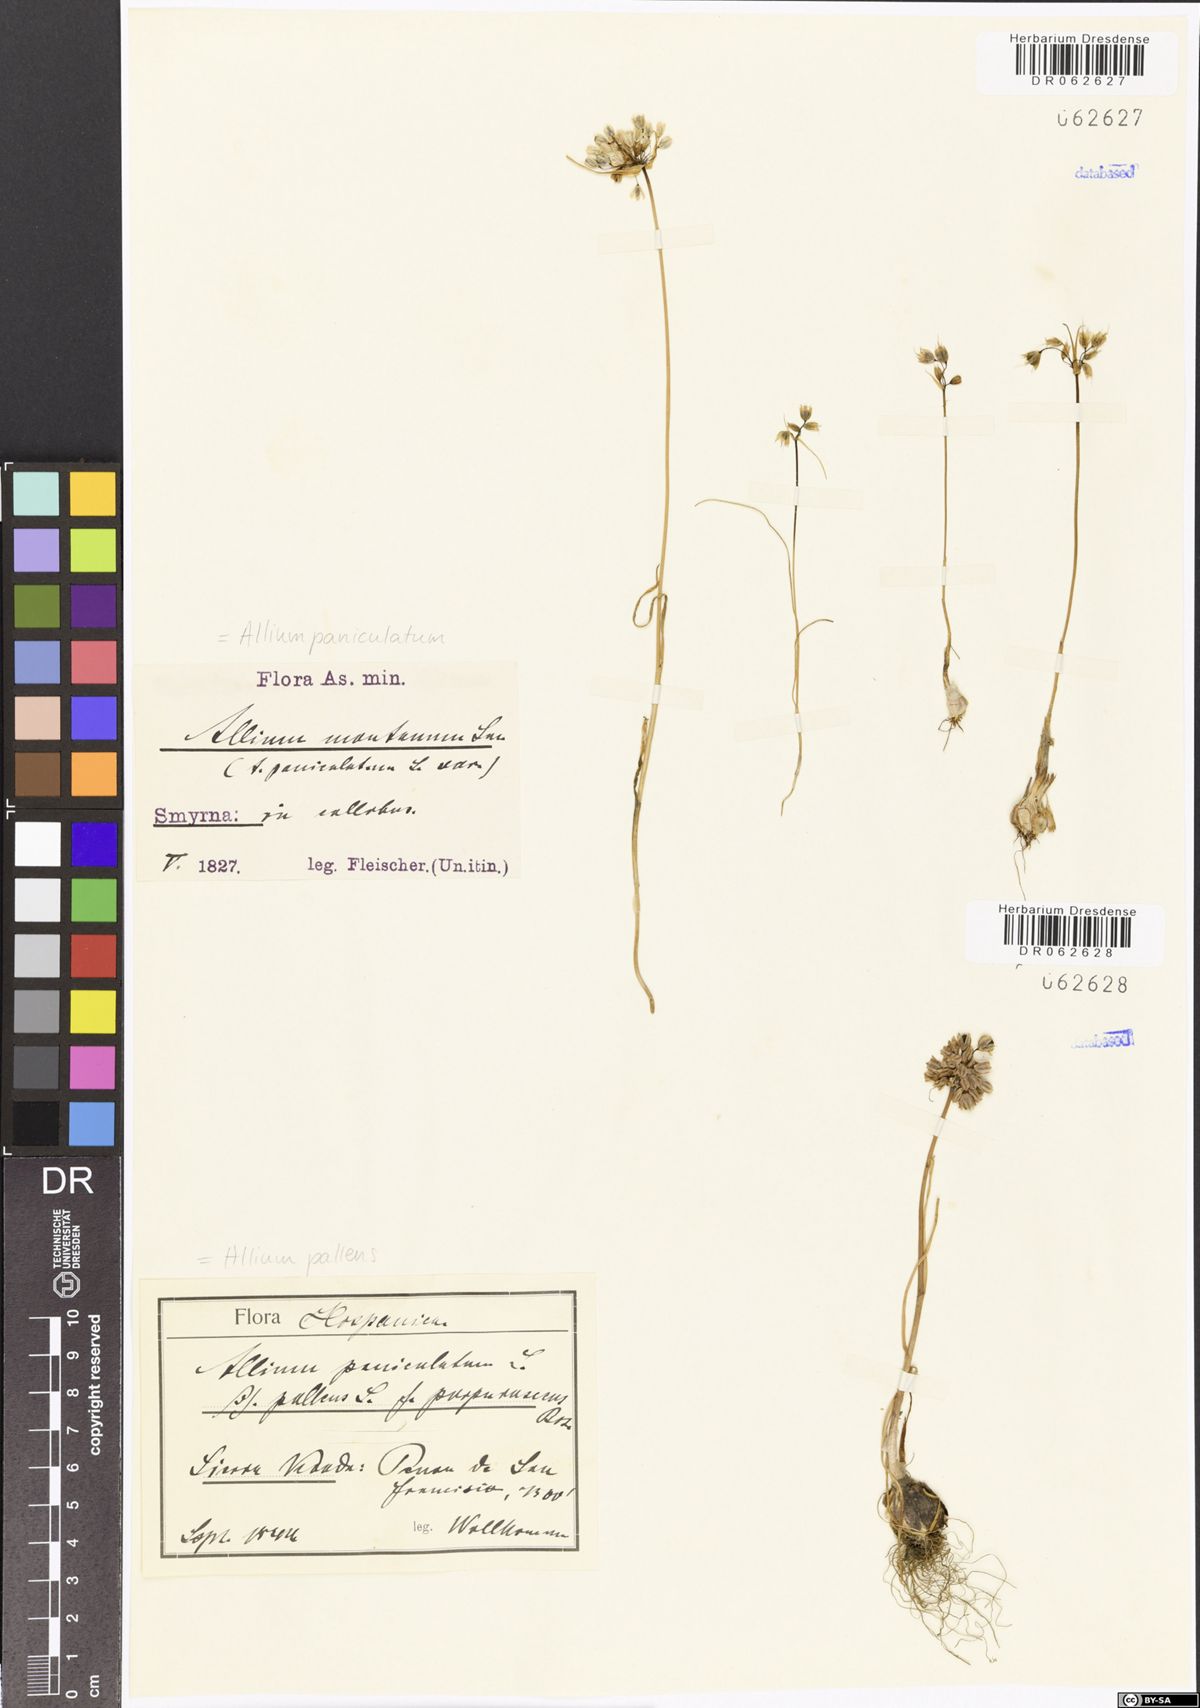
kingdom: Plantae
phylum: Tracheophyta
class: Liliopsida
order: Asparagales
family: Amaryllidaceae
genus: Allium
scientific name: Allium paniculatum
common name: Pale garlic
